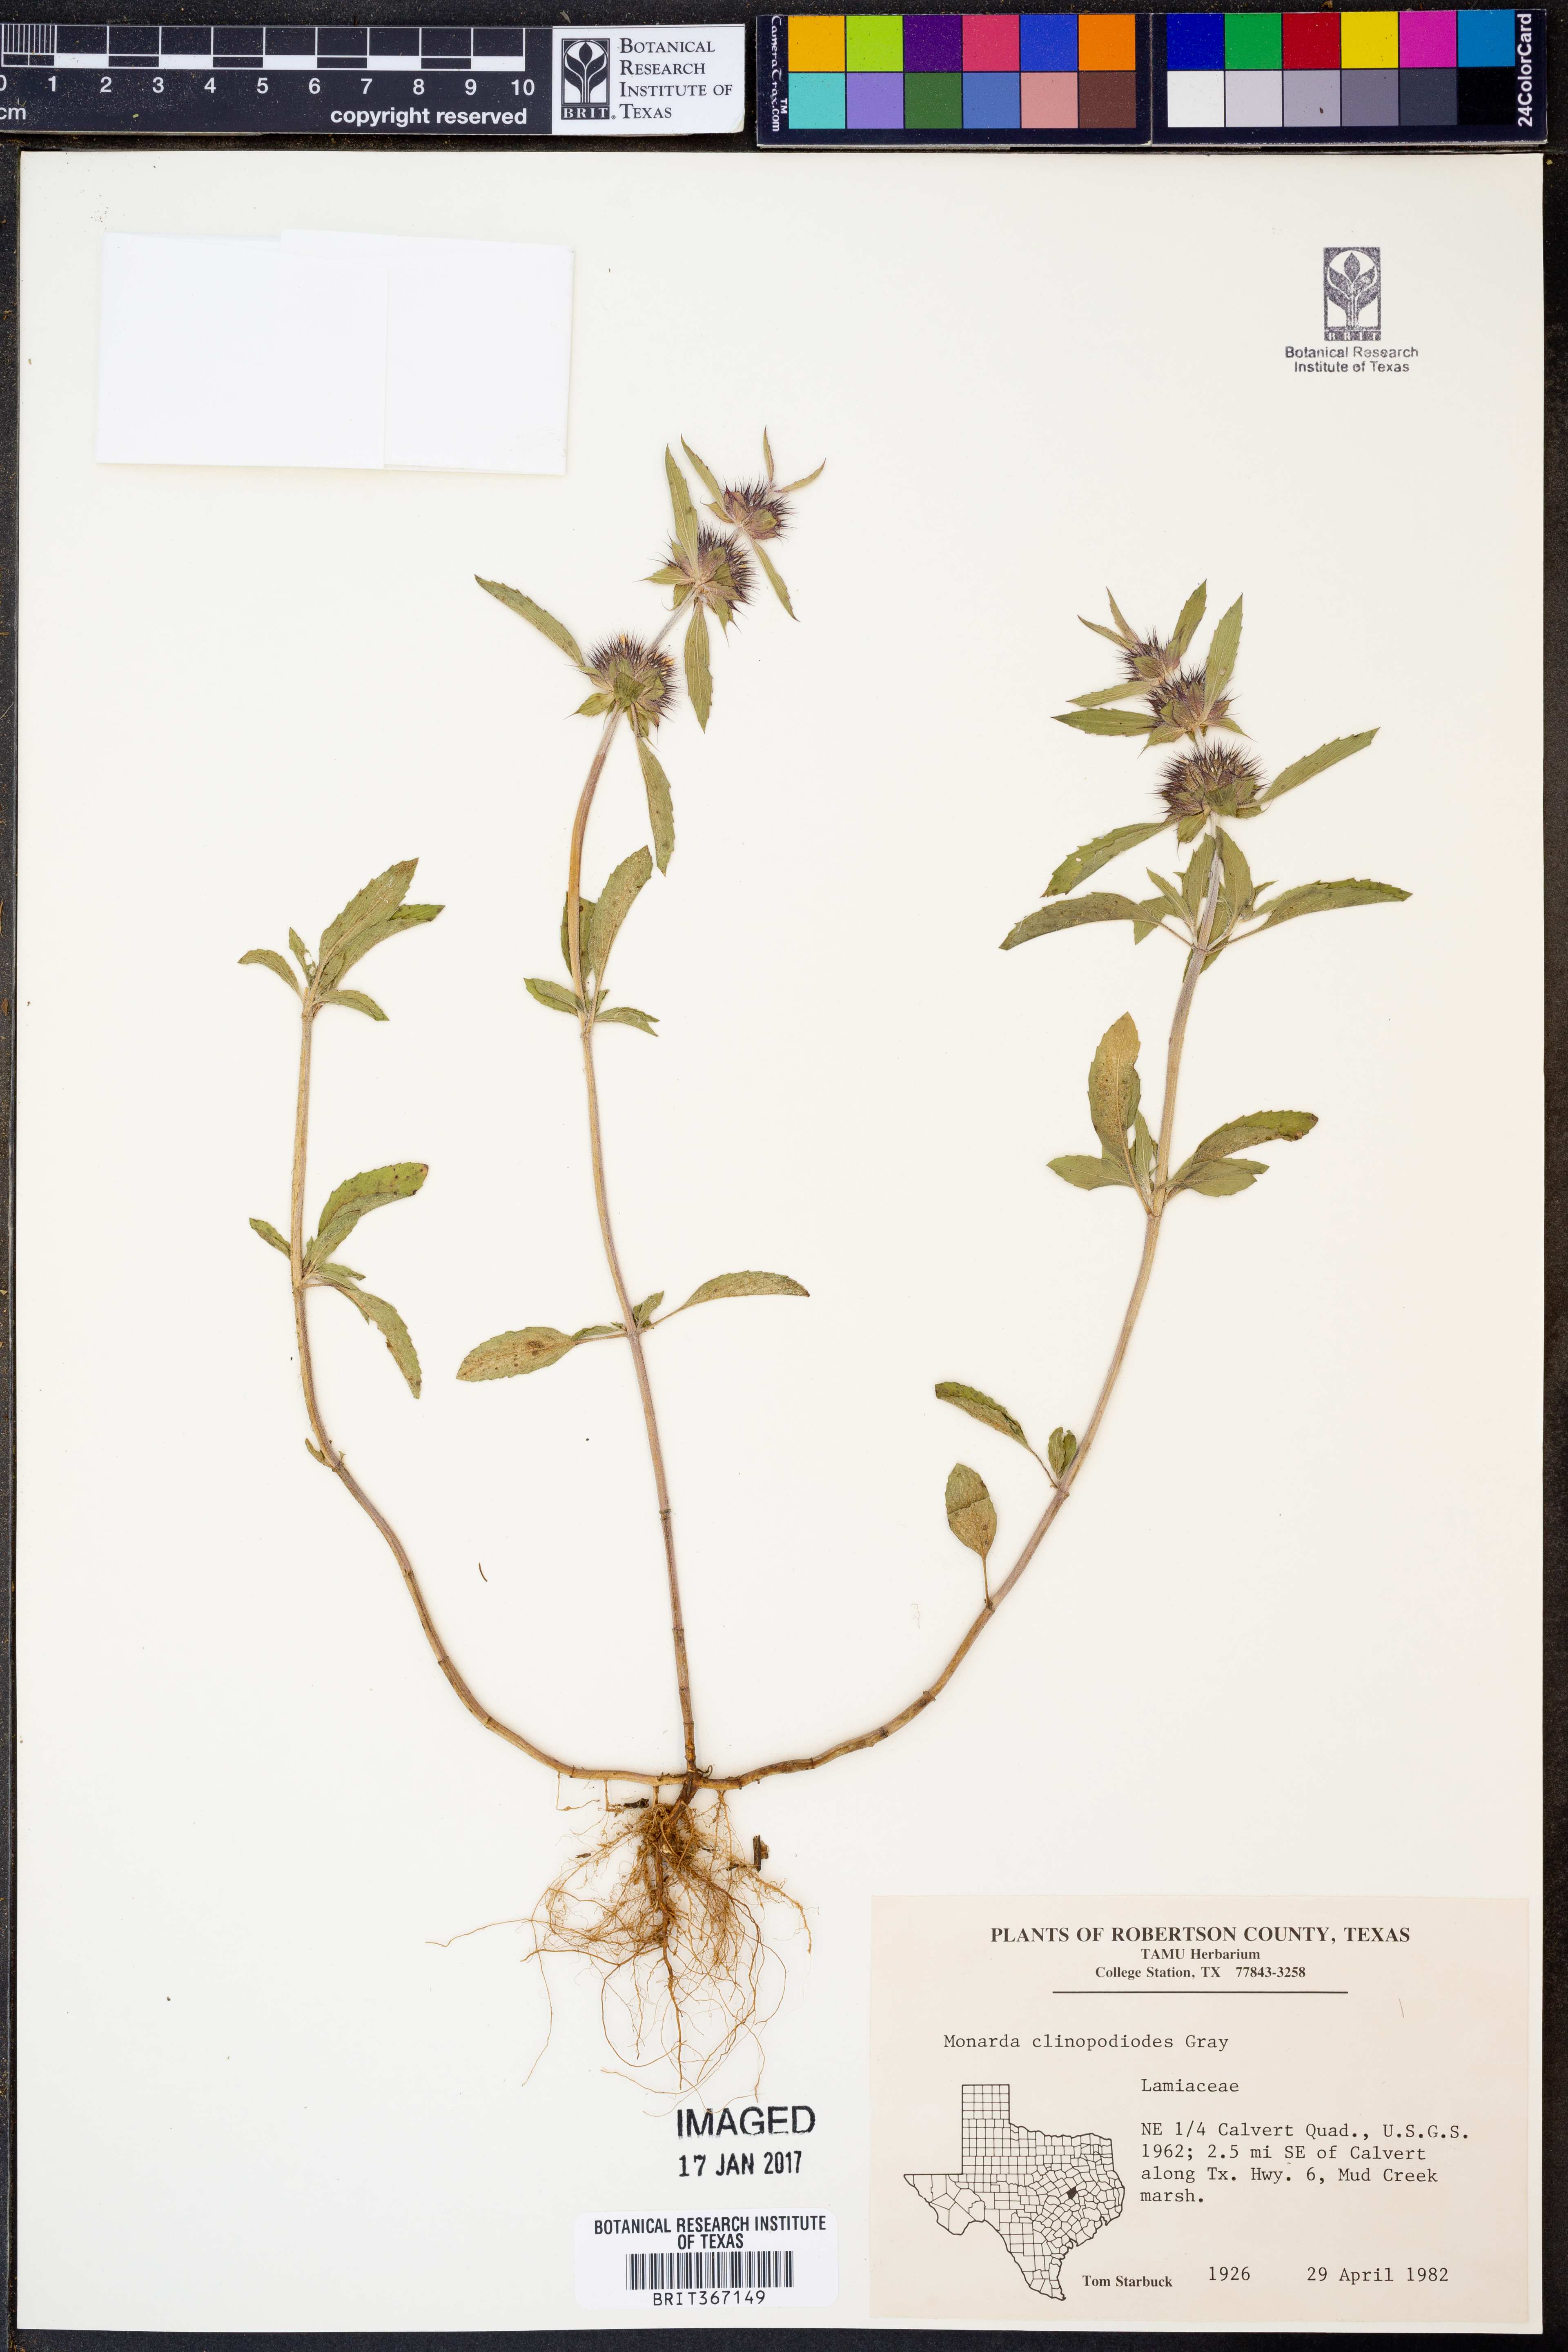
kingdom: Plantae
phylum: Tracheophyta
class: Magnoliopsida
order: Lamiales
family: Lamiaceae
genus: Monarda
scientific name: Monarda clinopodioides
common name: Basil beebalm
